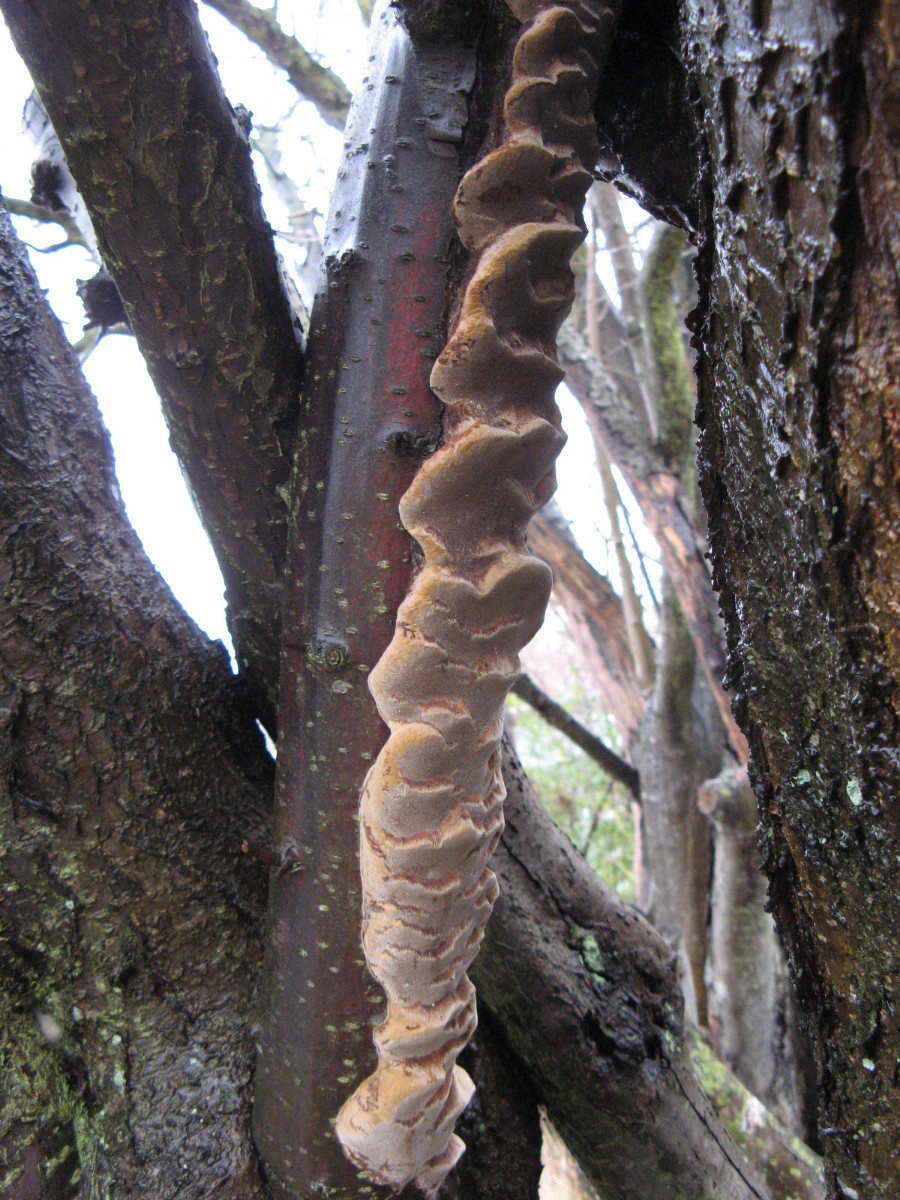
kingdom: Fungi
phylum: Basidiomycota
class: Agaricomycetes
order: Hymenochaetales
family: Hymenochaetaceae
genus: Phellinus
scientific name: Phellinus pomaceus
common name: blomme-ildporesvamp
